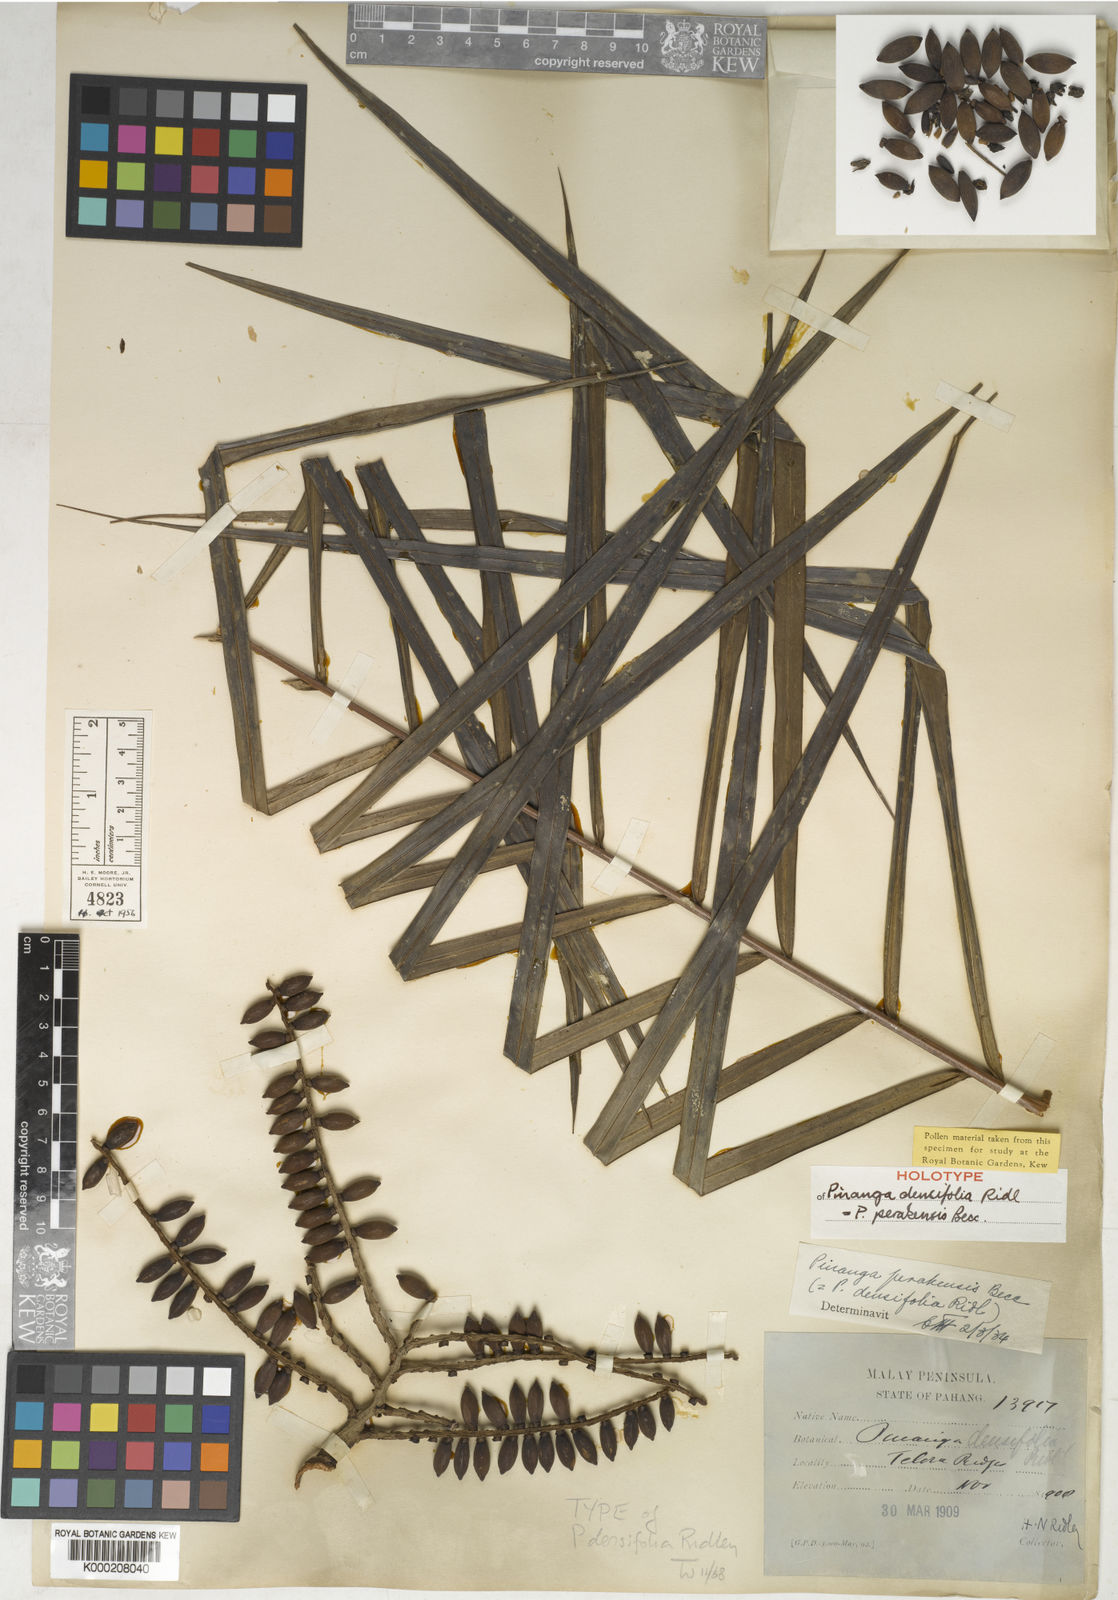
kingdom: Plantae
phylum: Tracheophyta
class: Liliopsida
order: Arecales
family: Arecaceae
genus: Pinanga
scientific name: Pinanga perakensis
